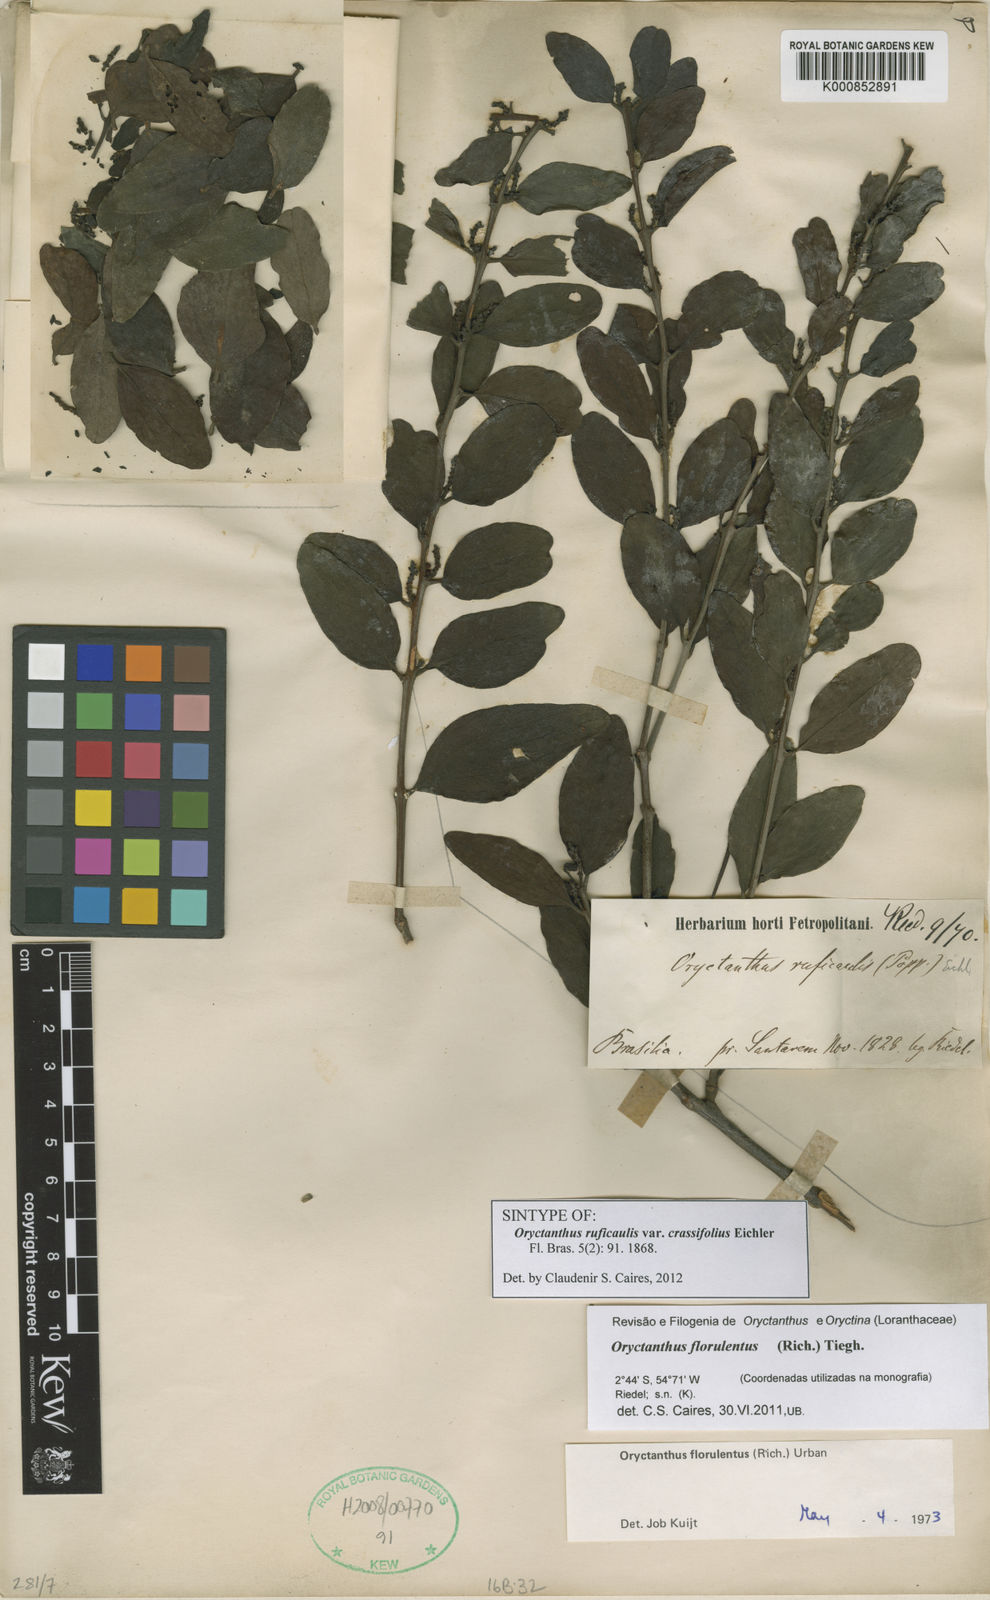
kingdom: Plantae
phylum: Tracheophyta
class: Magnoliopsida
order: Santalales
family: Loranthaceae
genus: Oryctanthus
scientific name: Oryctanthus florulentus
